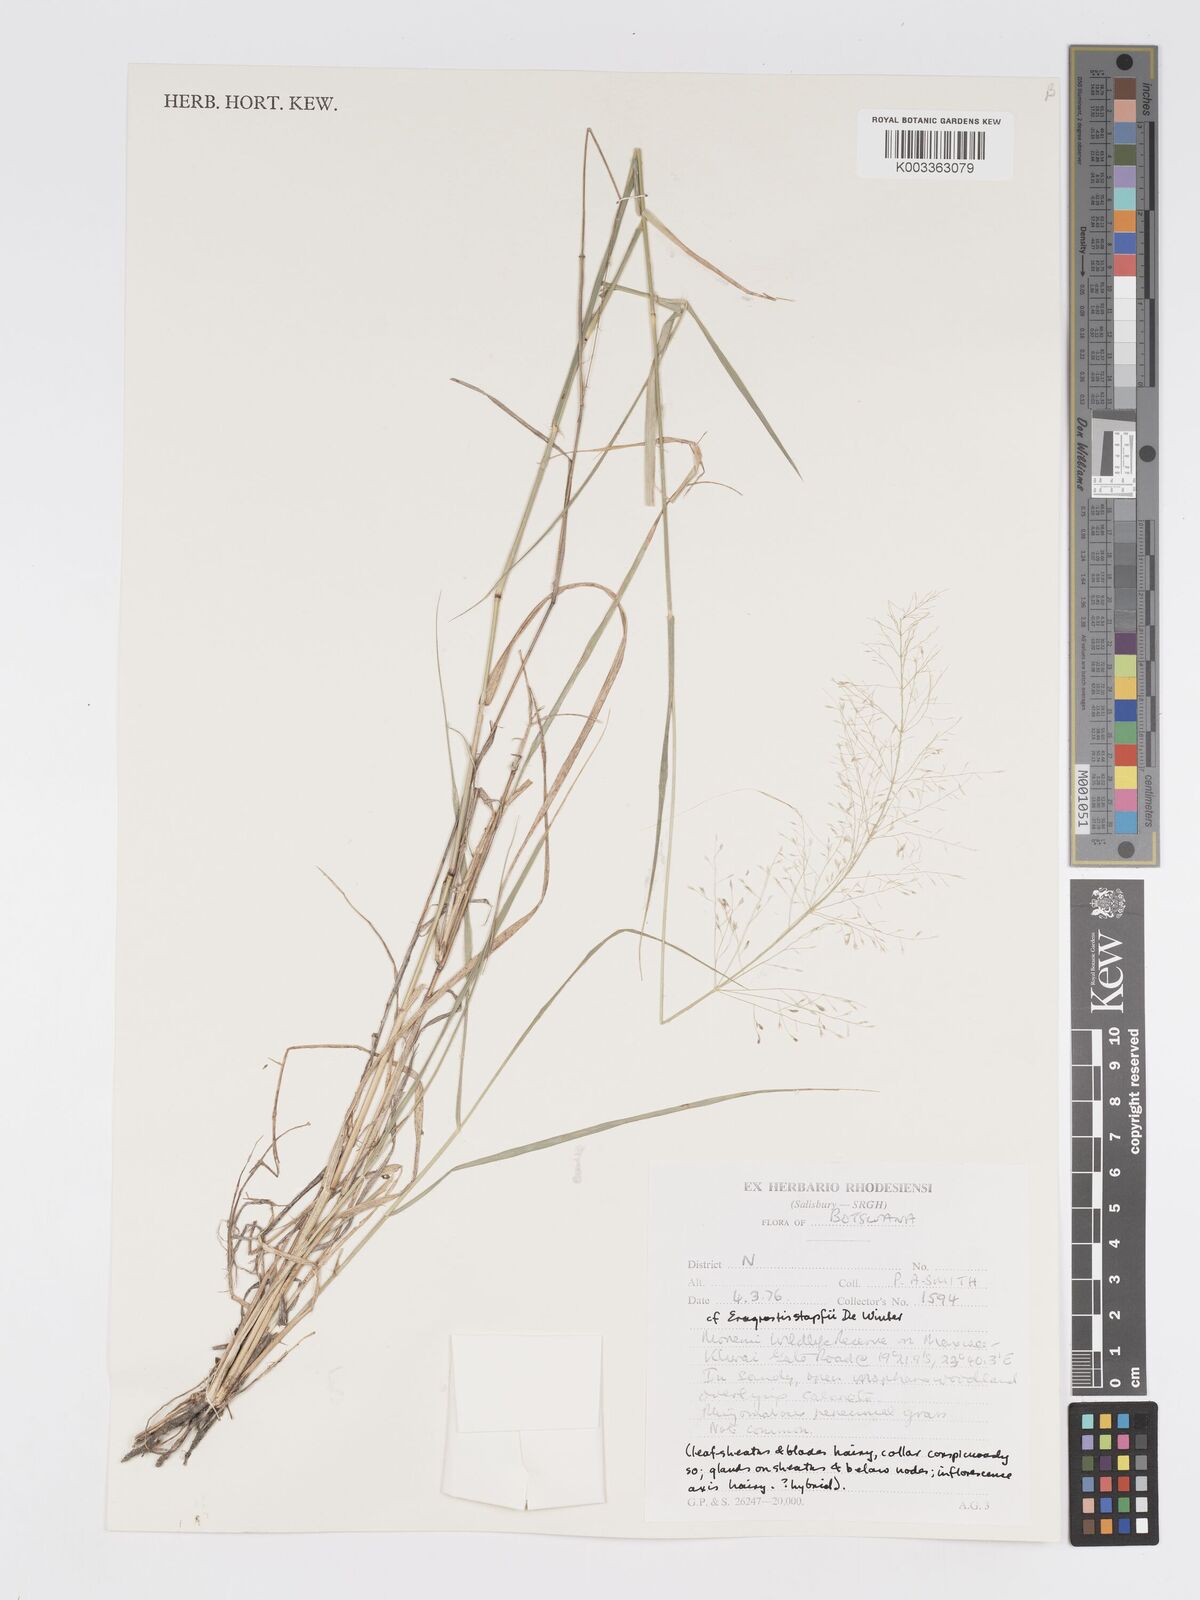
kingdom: Plantae
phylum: Tracheophyta
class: Liliopsida
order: Poales
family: Poaceae
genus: Eragrostis
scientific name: Eragrostis cylindriflora
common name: Cylinderflower lovegrass
